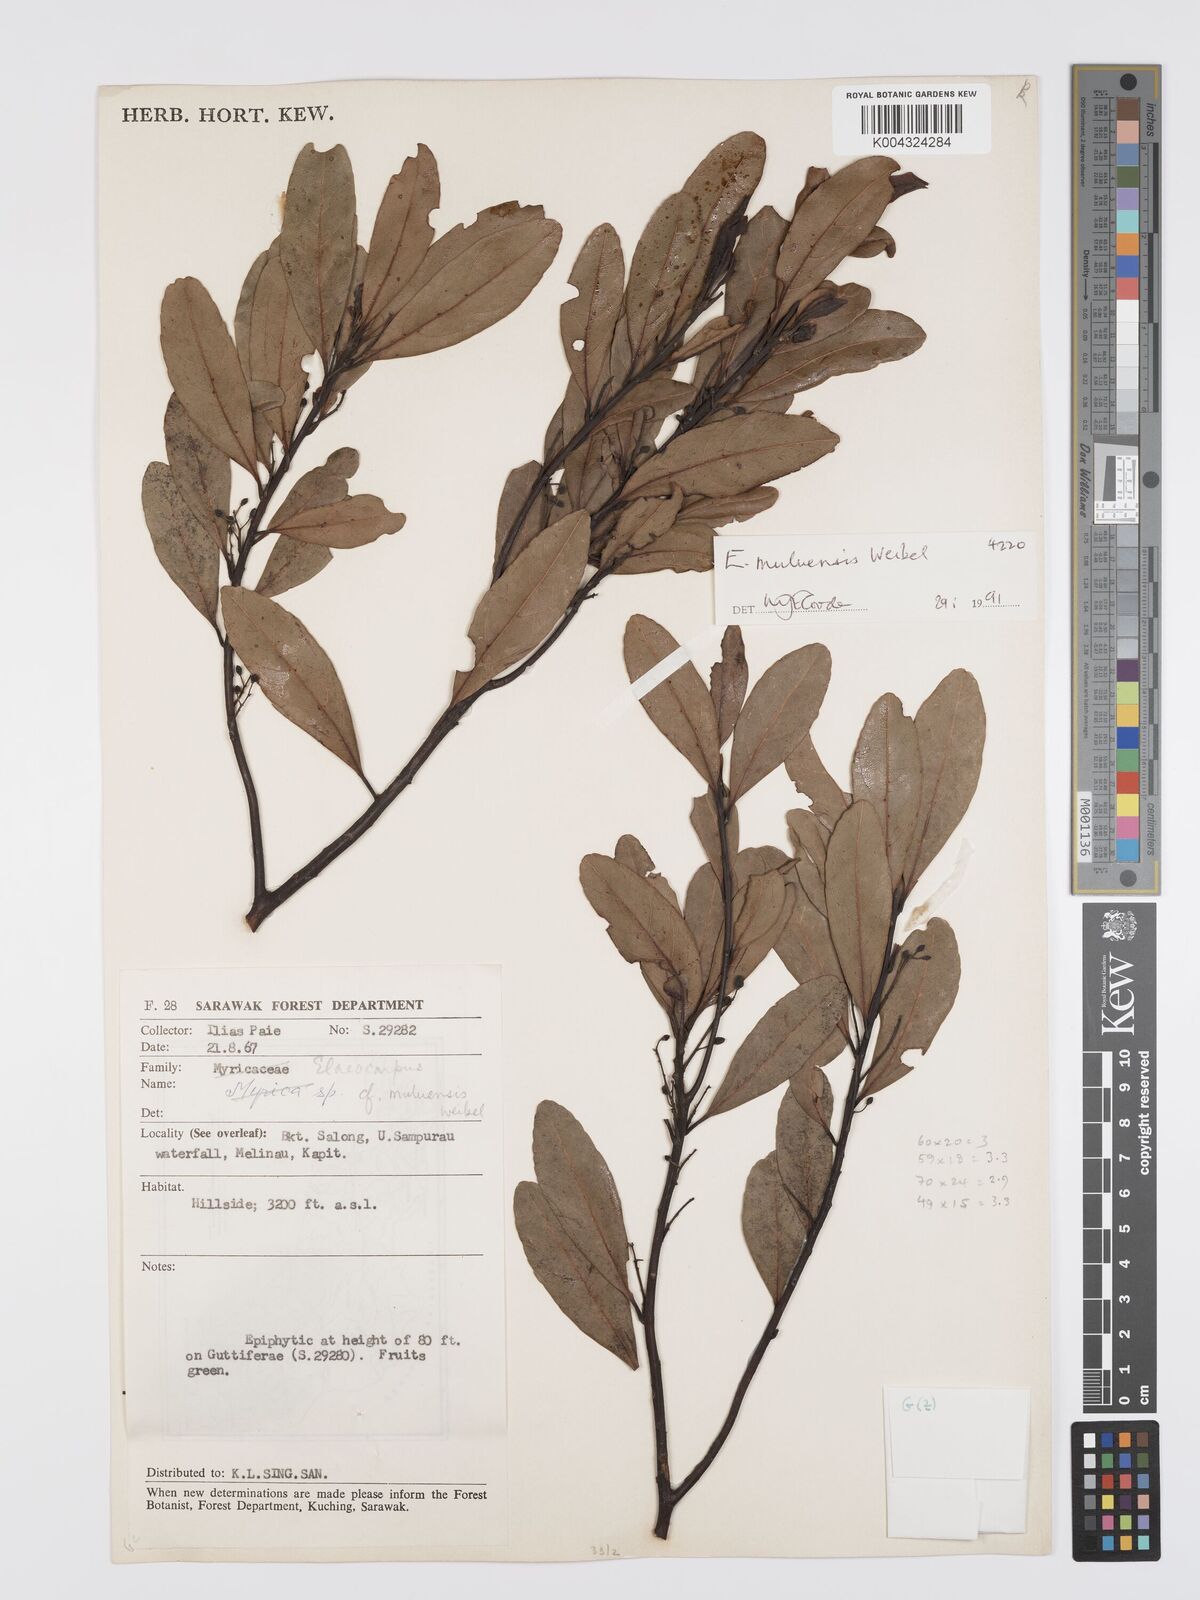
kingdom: Plantae
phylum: Tracheophyta
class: Magnoliopsida
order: Oxalidales
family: Elaeocarpaceae
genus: Elaeocarpus
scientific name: Elaeocarpus muluensis
